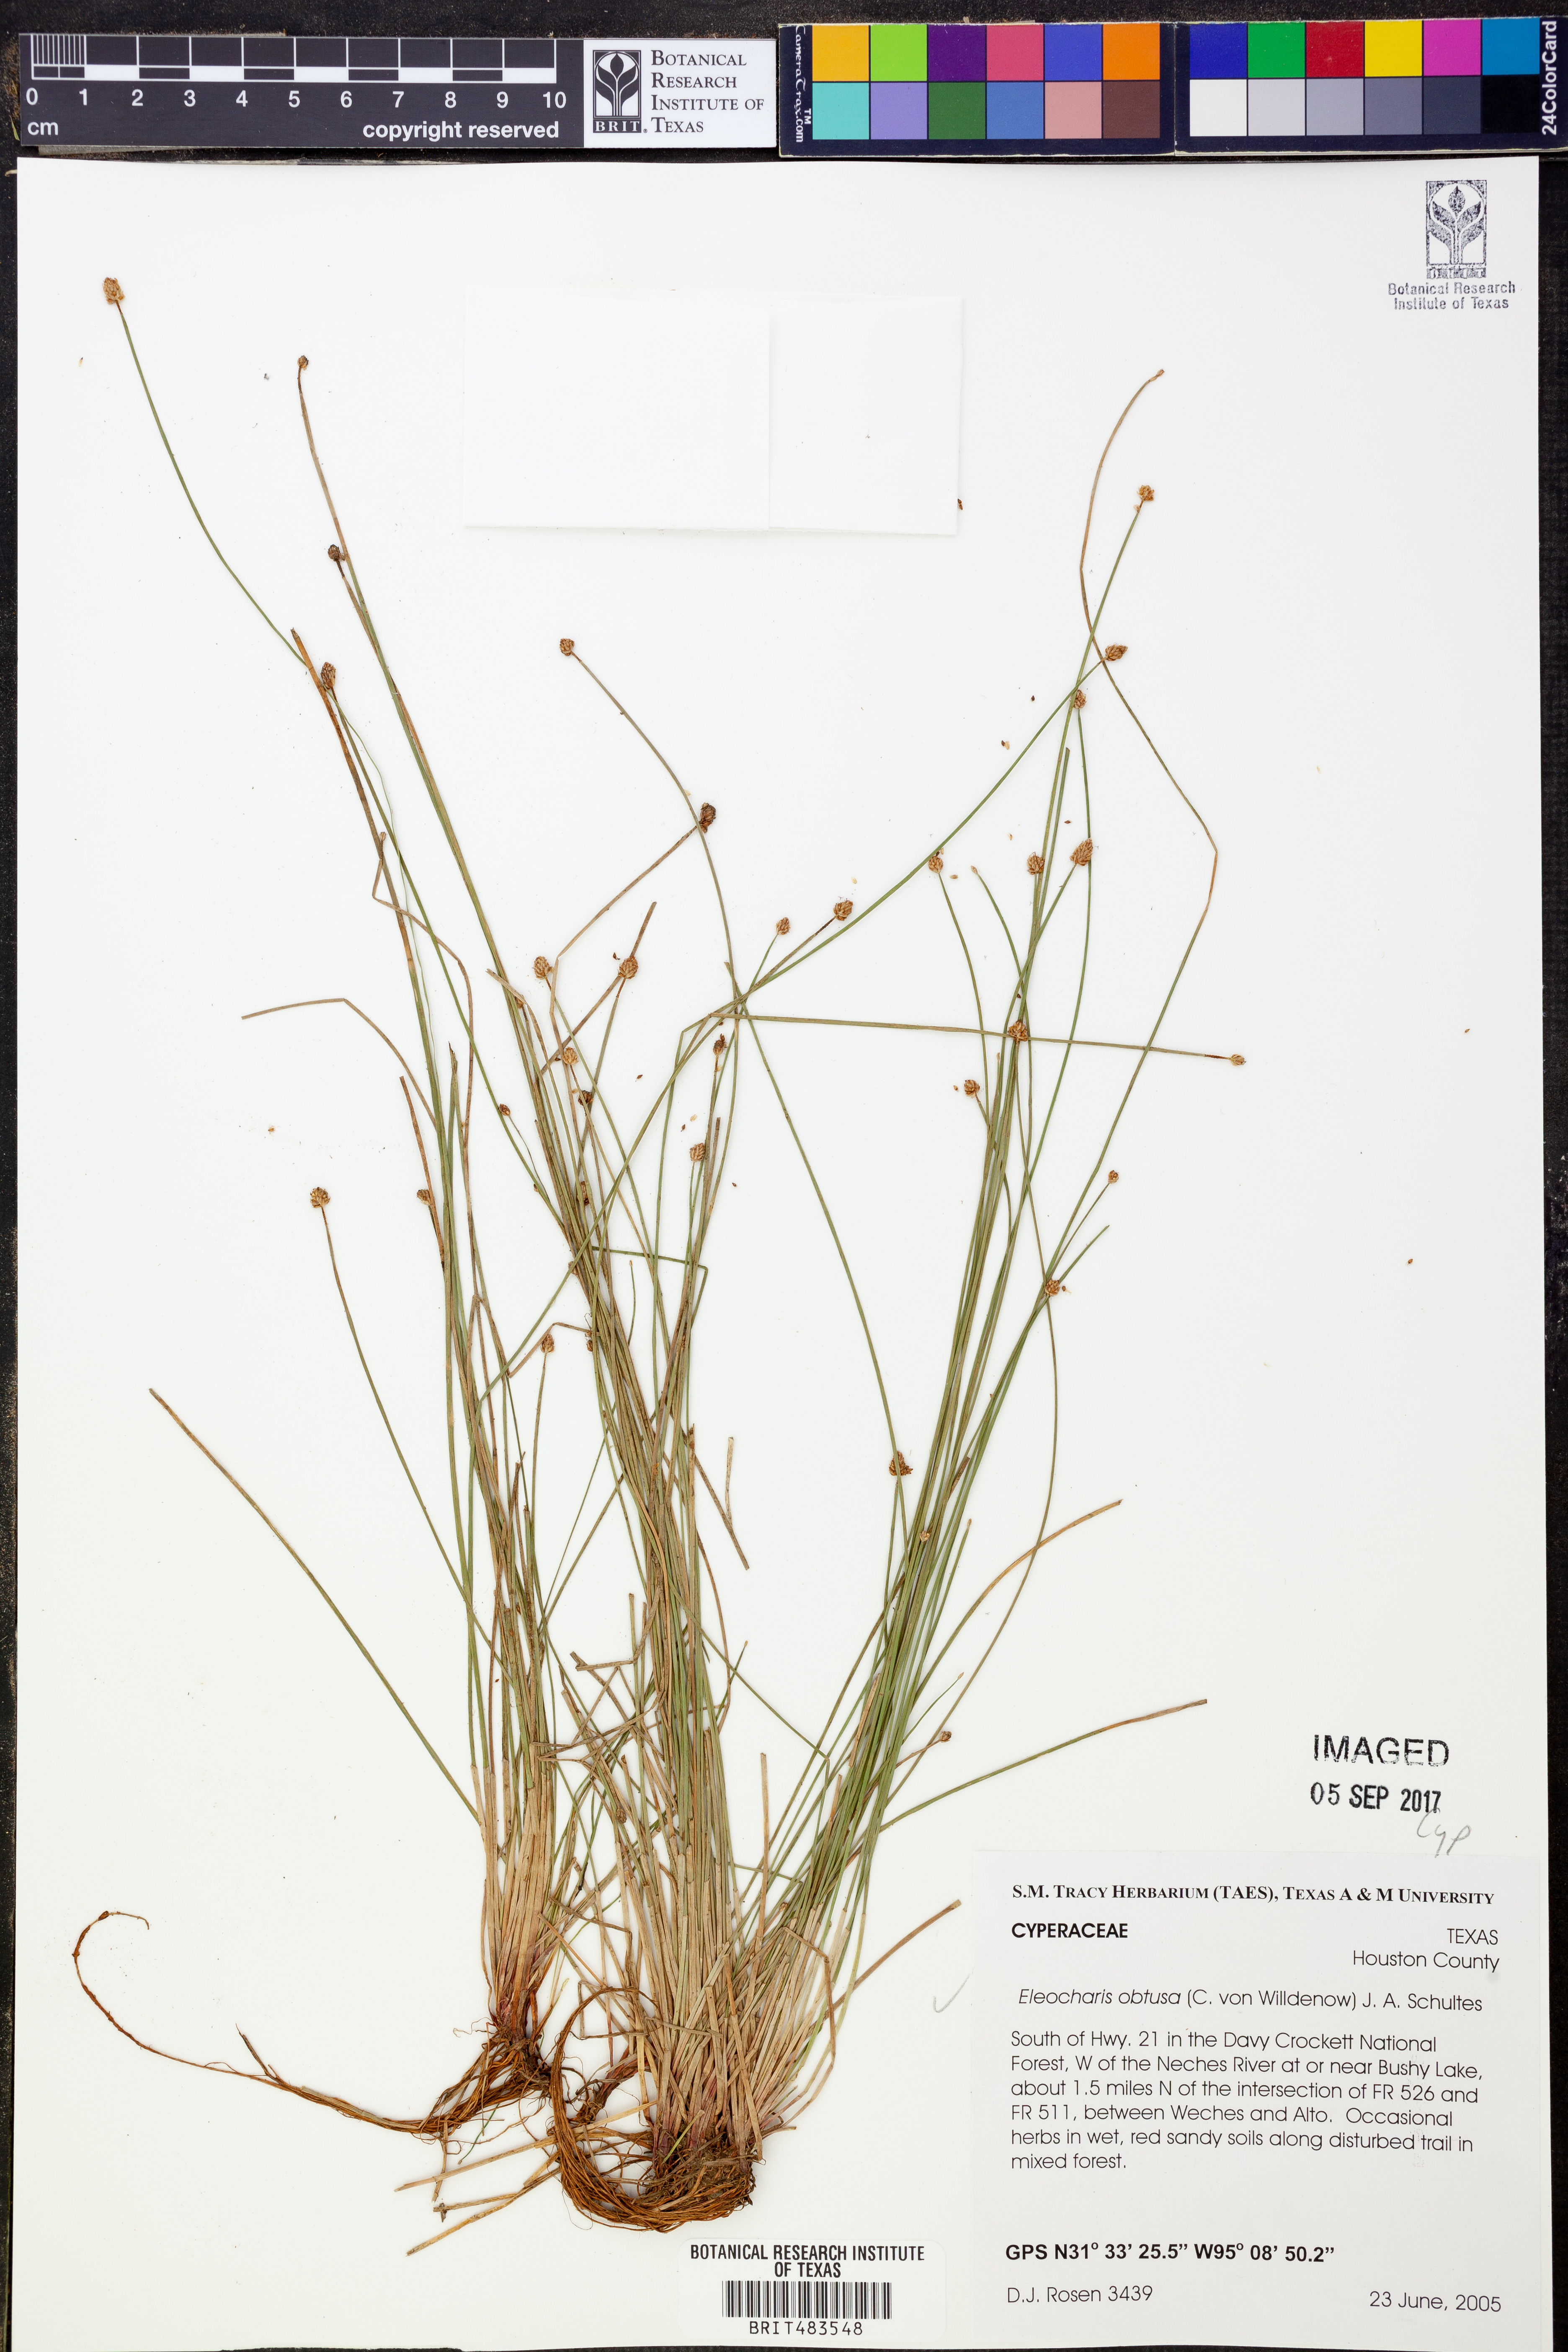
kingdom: Plantae
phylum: Tracheophyta
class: Liliopsida
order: Poales
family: Cyperaceae
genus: Eleocharis
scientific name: Eleocharis obtusa
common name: Blunt spikerush
